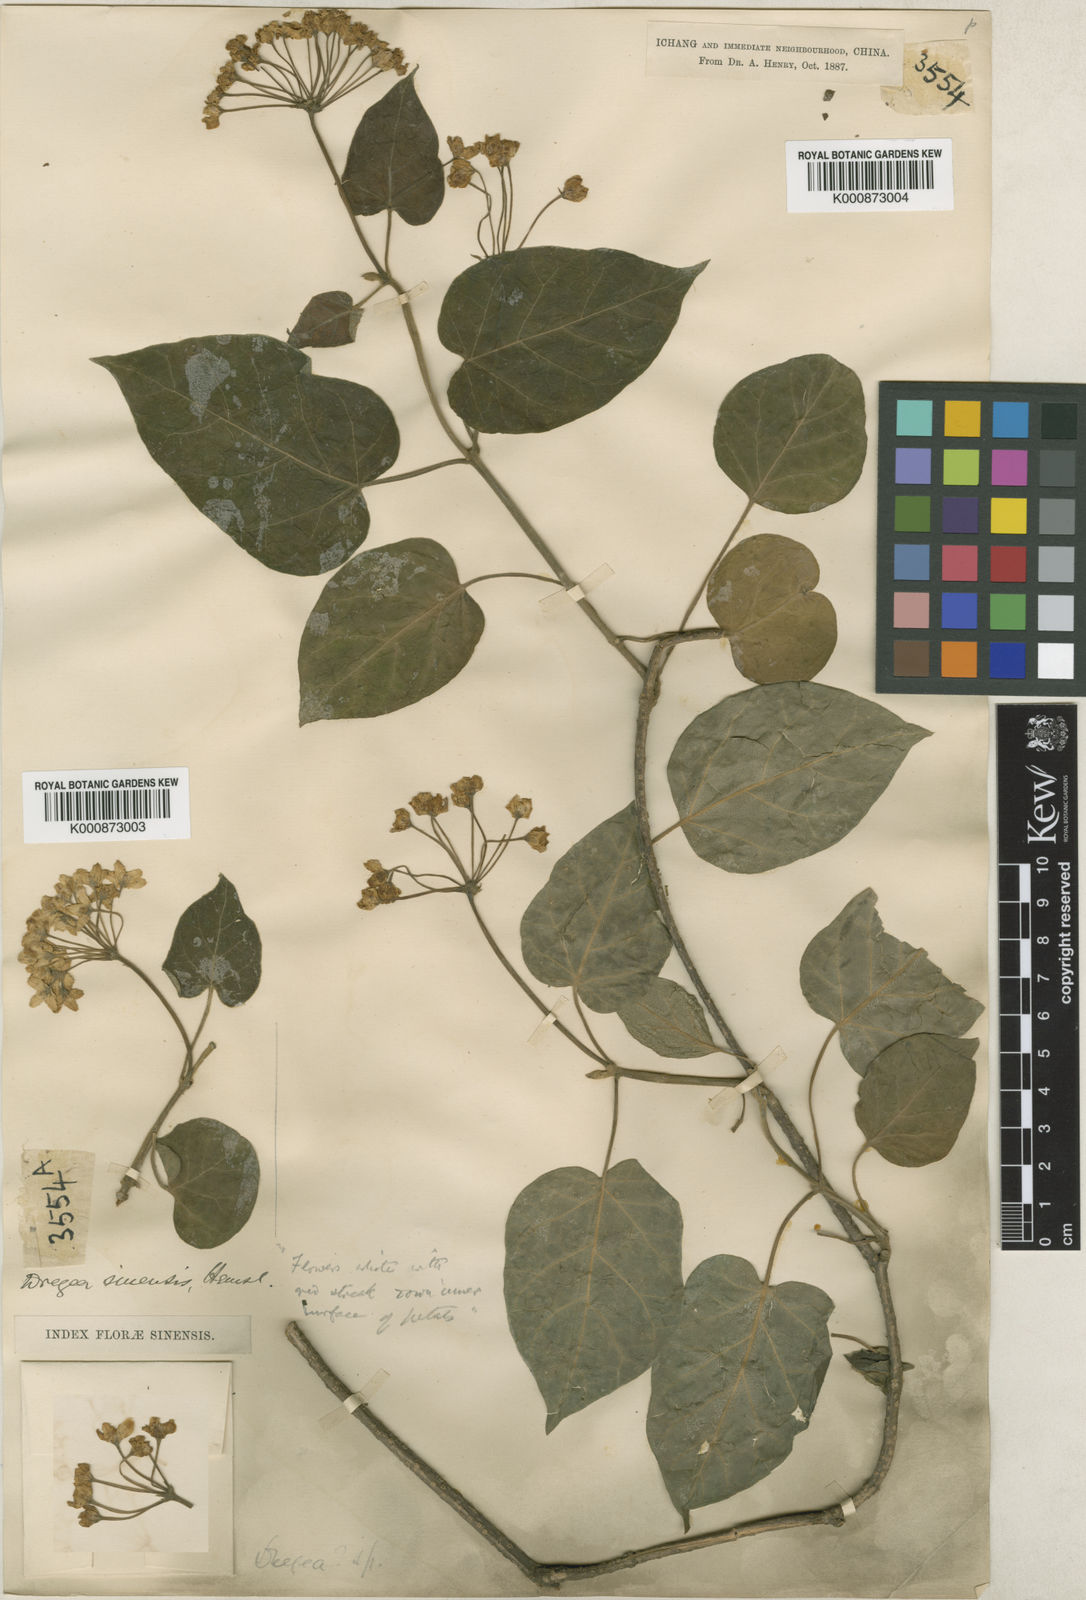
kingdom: Plantae
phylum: Tracheophyta
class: Magnoliopsida
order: Gentianales
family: Apocynaceae
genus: Stephanotis
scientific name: Stephanotis sinensis
